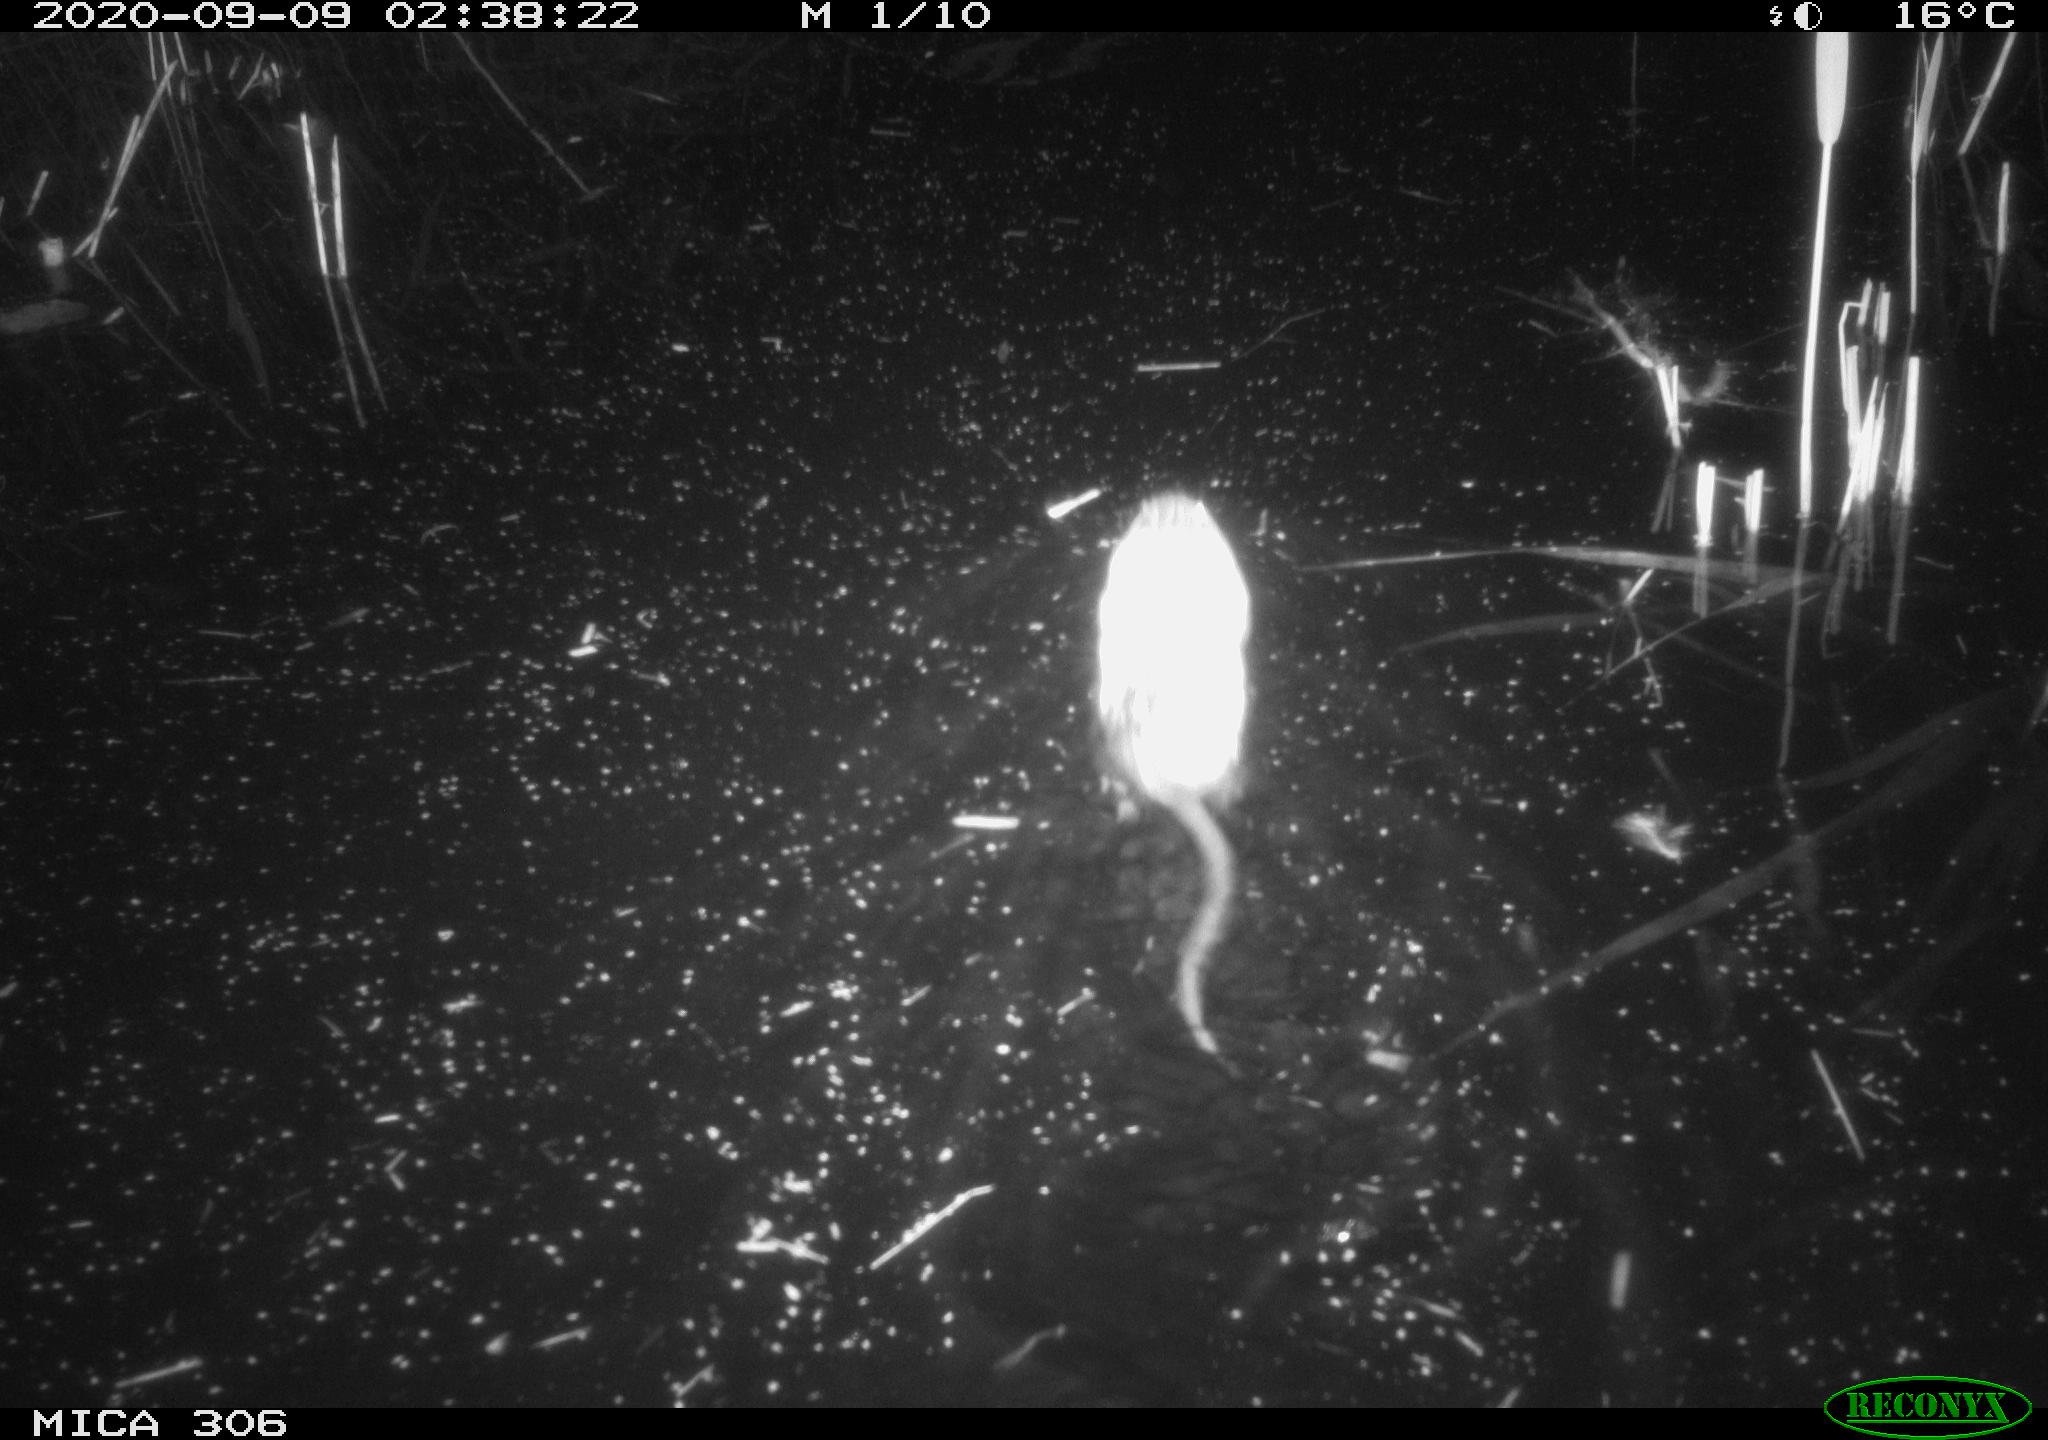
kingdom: Animalia
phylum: Chordata
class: Mammalia
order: Rodentia
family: Cricetidae
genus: Ondatra
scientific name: Ondatra zibethicus
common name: Muskrat
